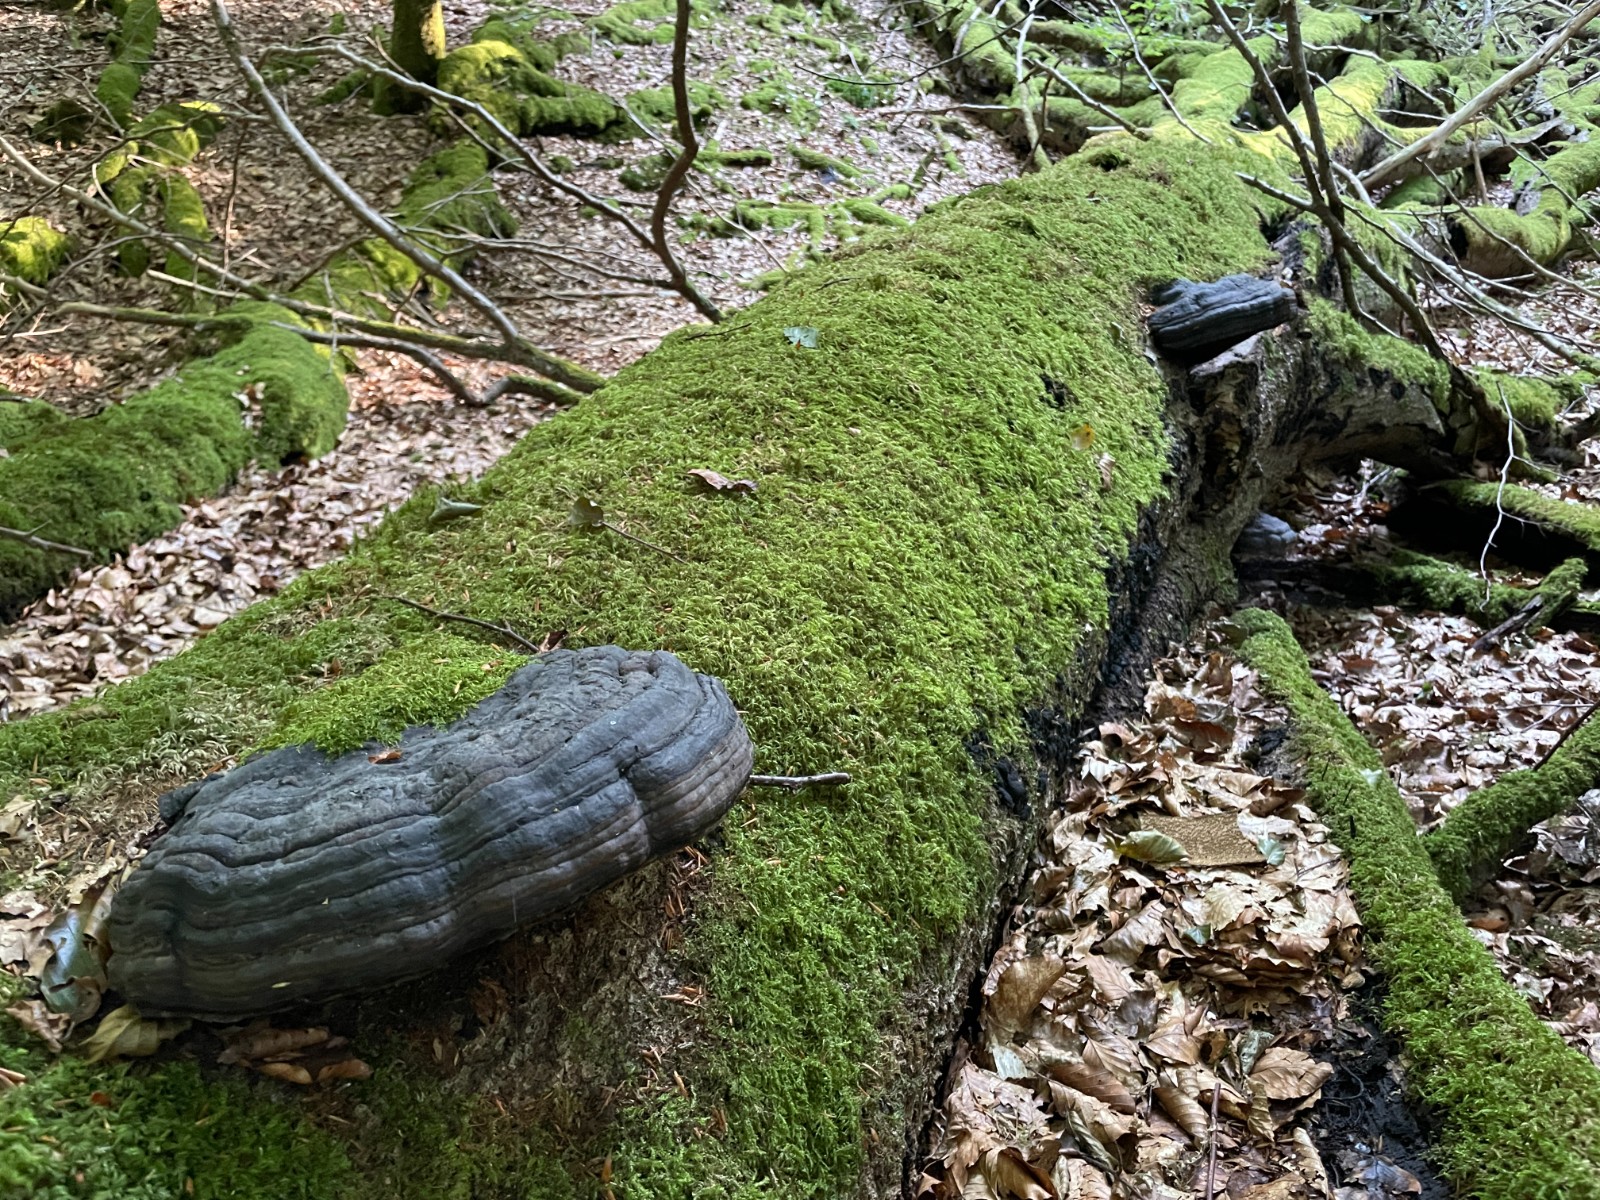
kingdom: Fungi
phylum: Basidiomycota
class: Agaricomycetes
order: Polyporales
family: Polyporaceae
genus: Fomes
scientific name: Fomes fomentarius
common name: tøndersvamp
